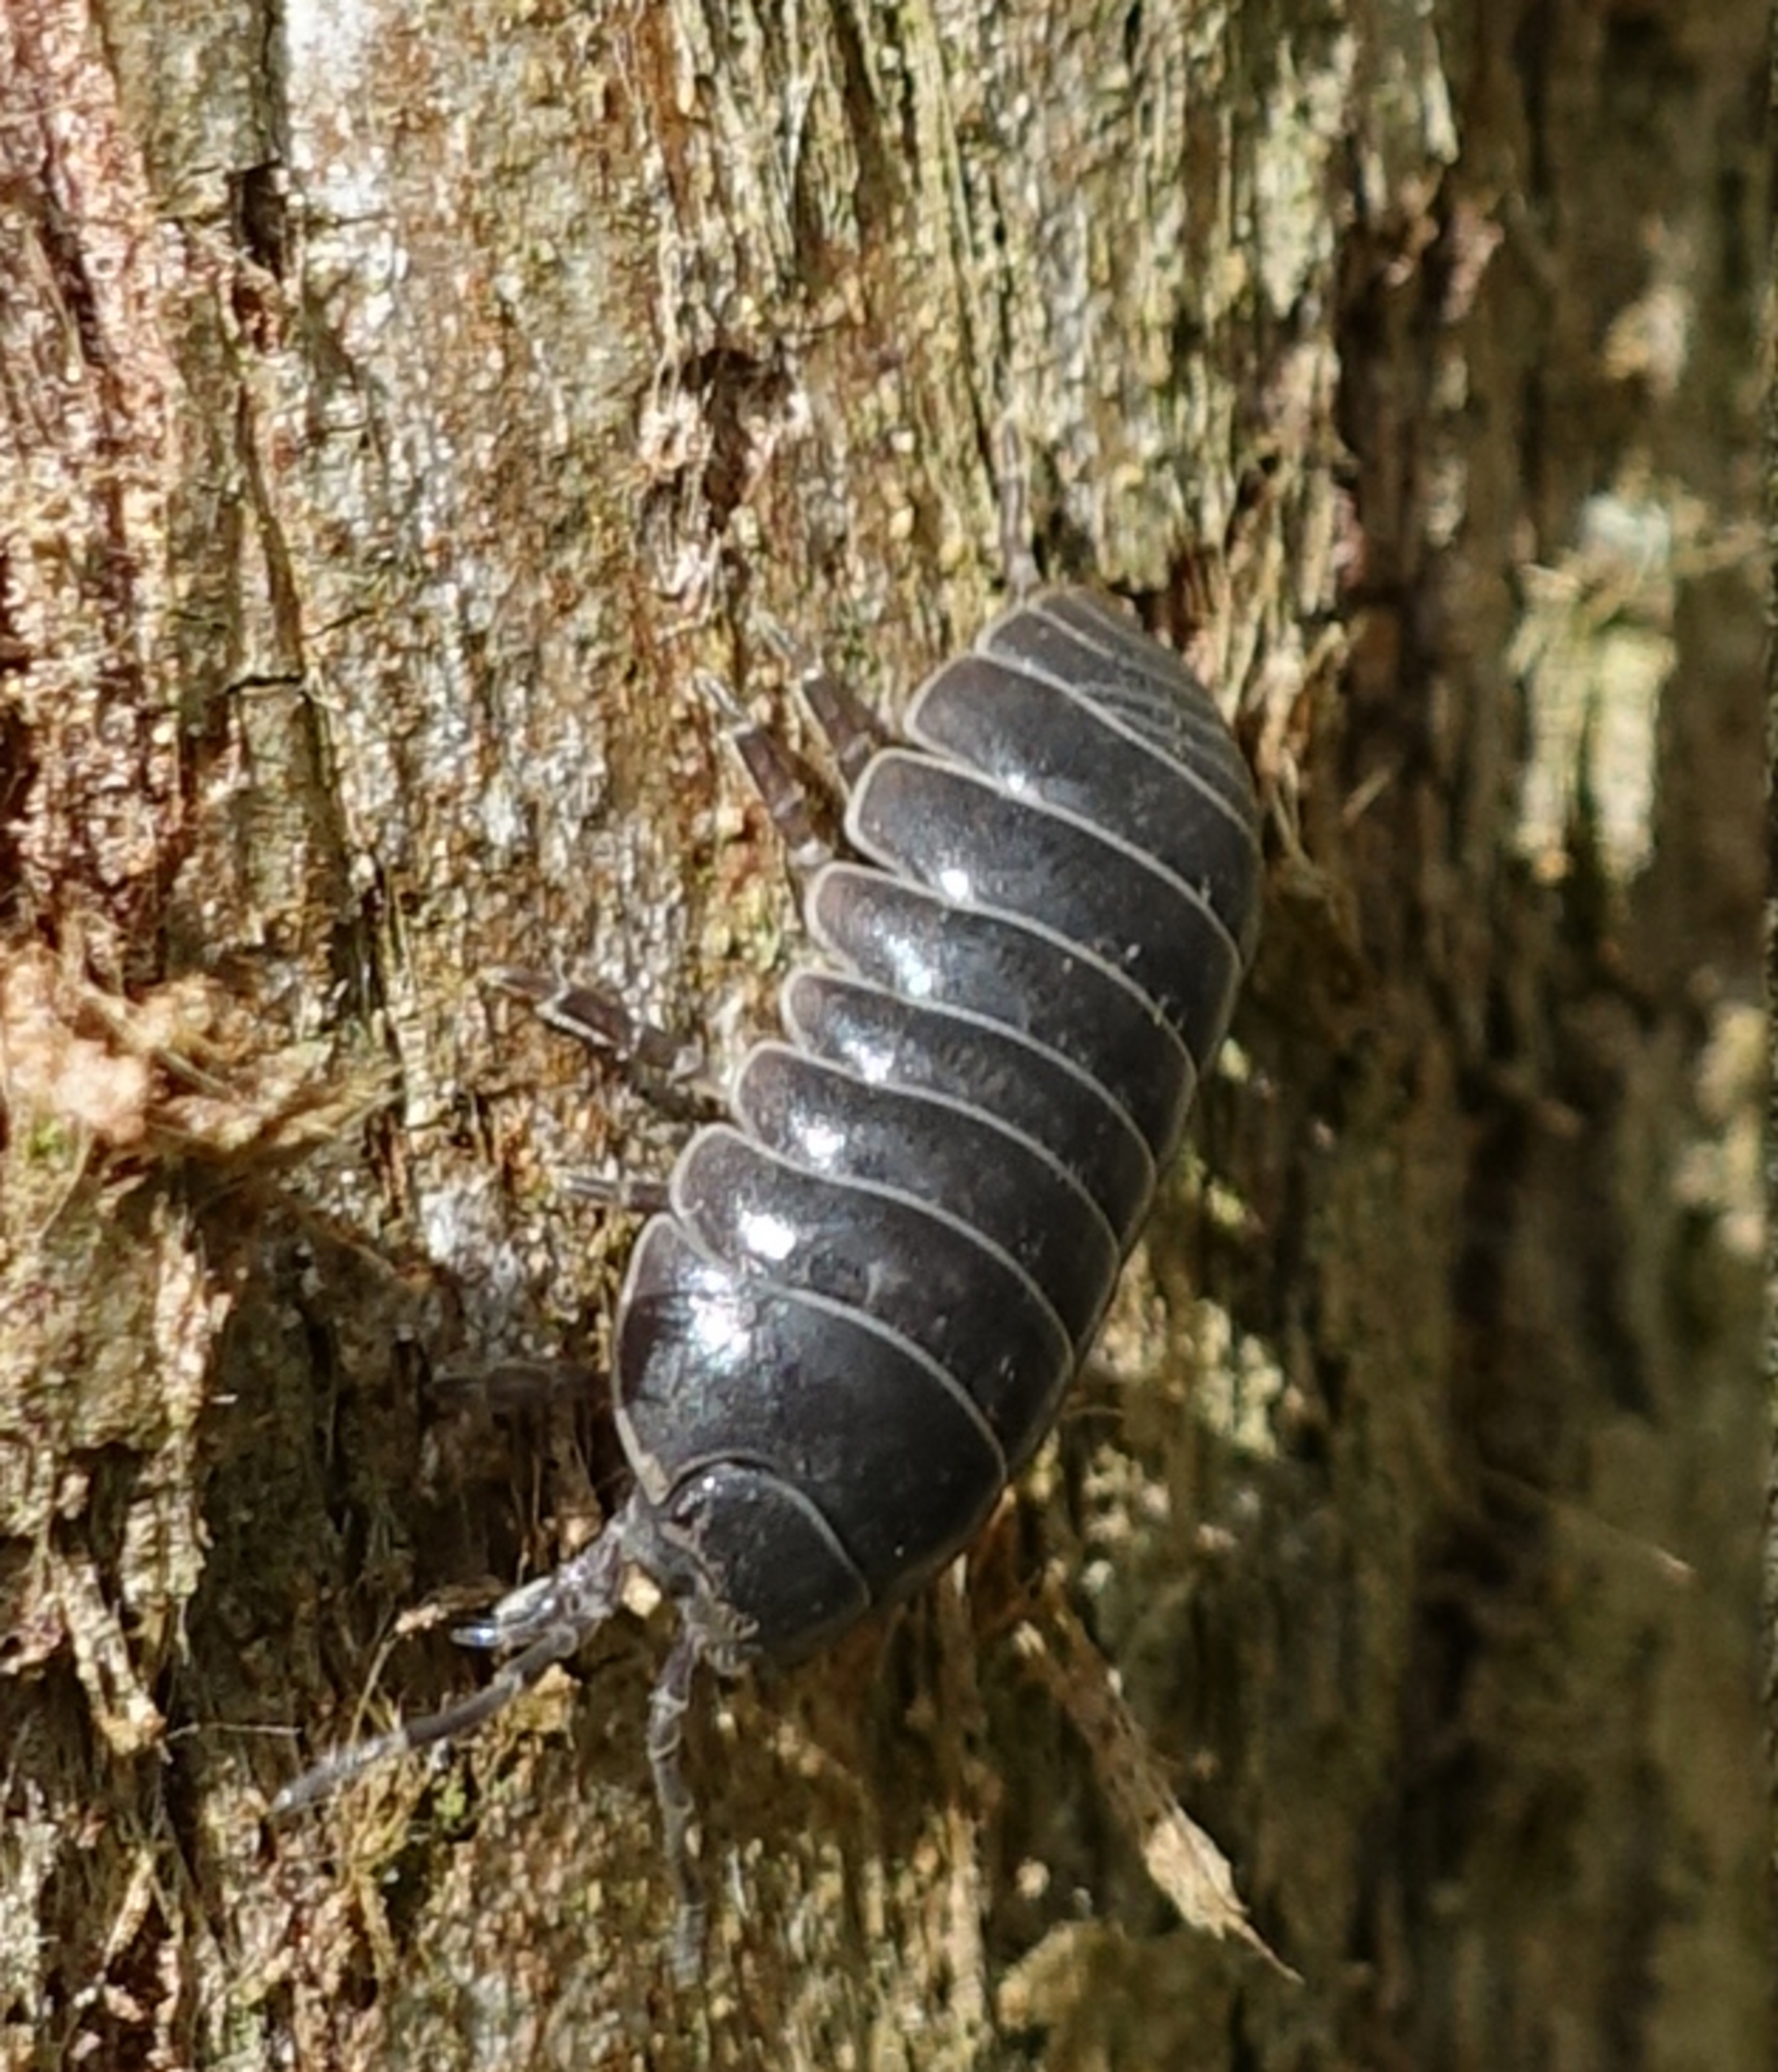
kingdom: Animalia
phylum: Arthropoda
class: Malacostraca
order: Isopoda
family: Armadillidiidae
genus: Armadillidium
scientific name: Armadillidium vulgare
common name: Almindelig kuglebænkebider
